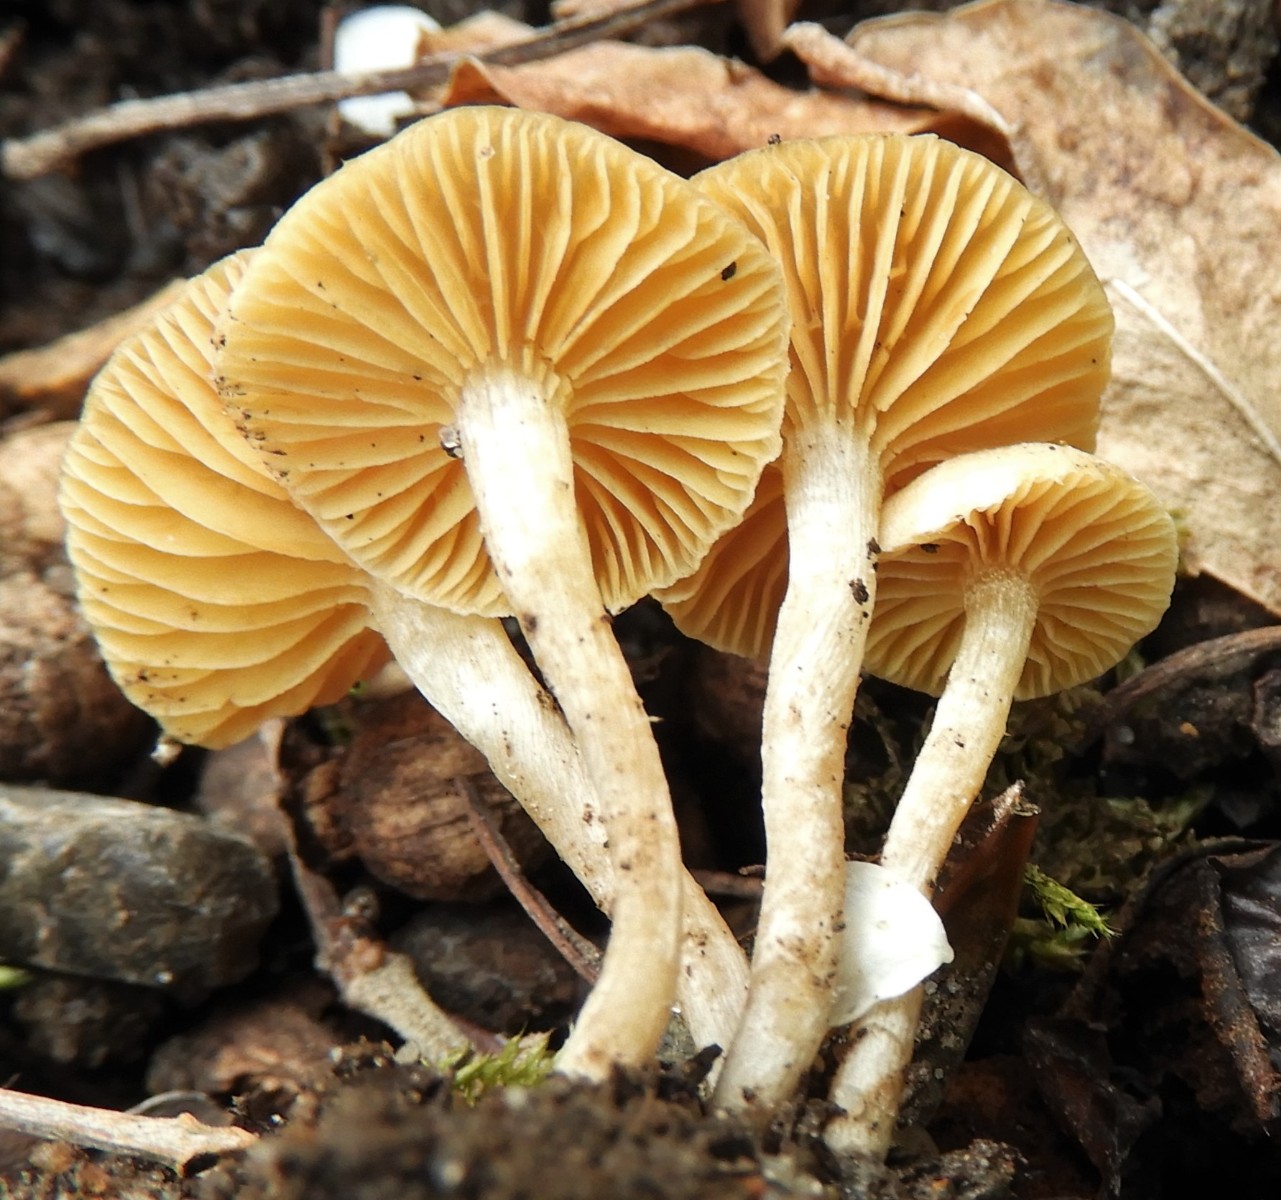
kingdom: Fungi
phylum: Basidiomycota
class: Agaricomycetes
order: Agaricales
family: Tubariaceae
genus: Tubaria
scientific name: Tubaria dispersa
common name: tjørne-fnughat
